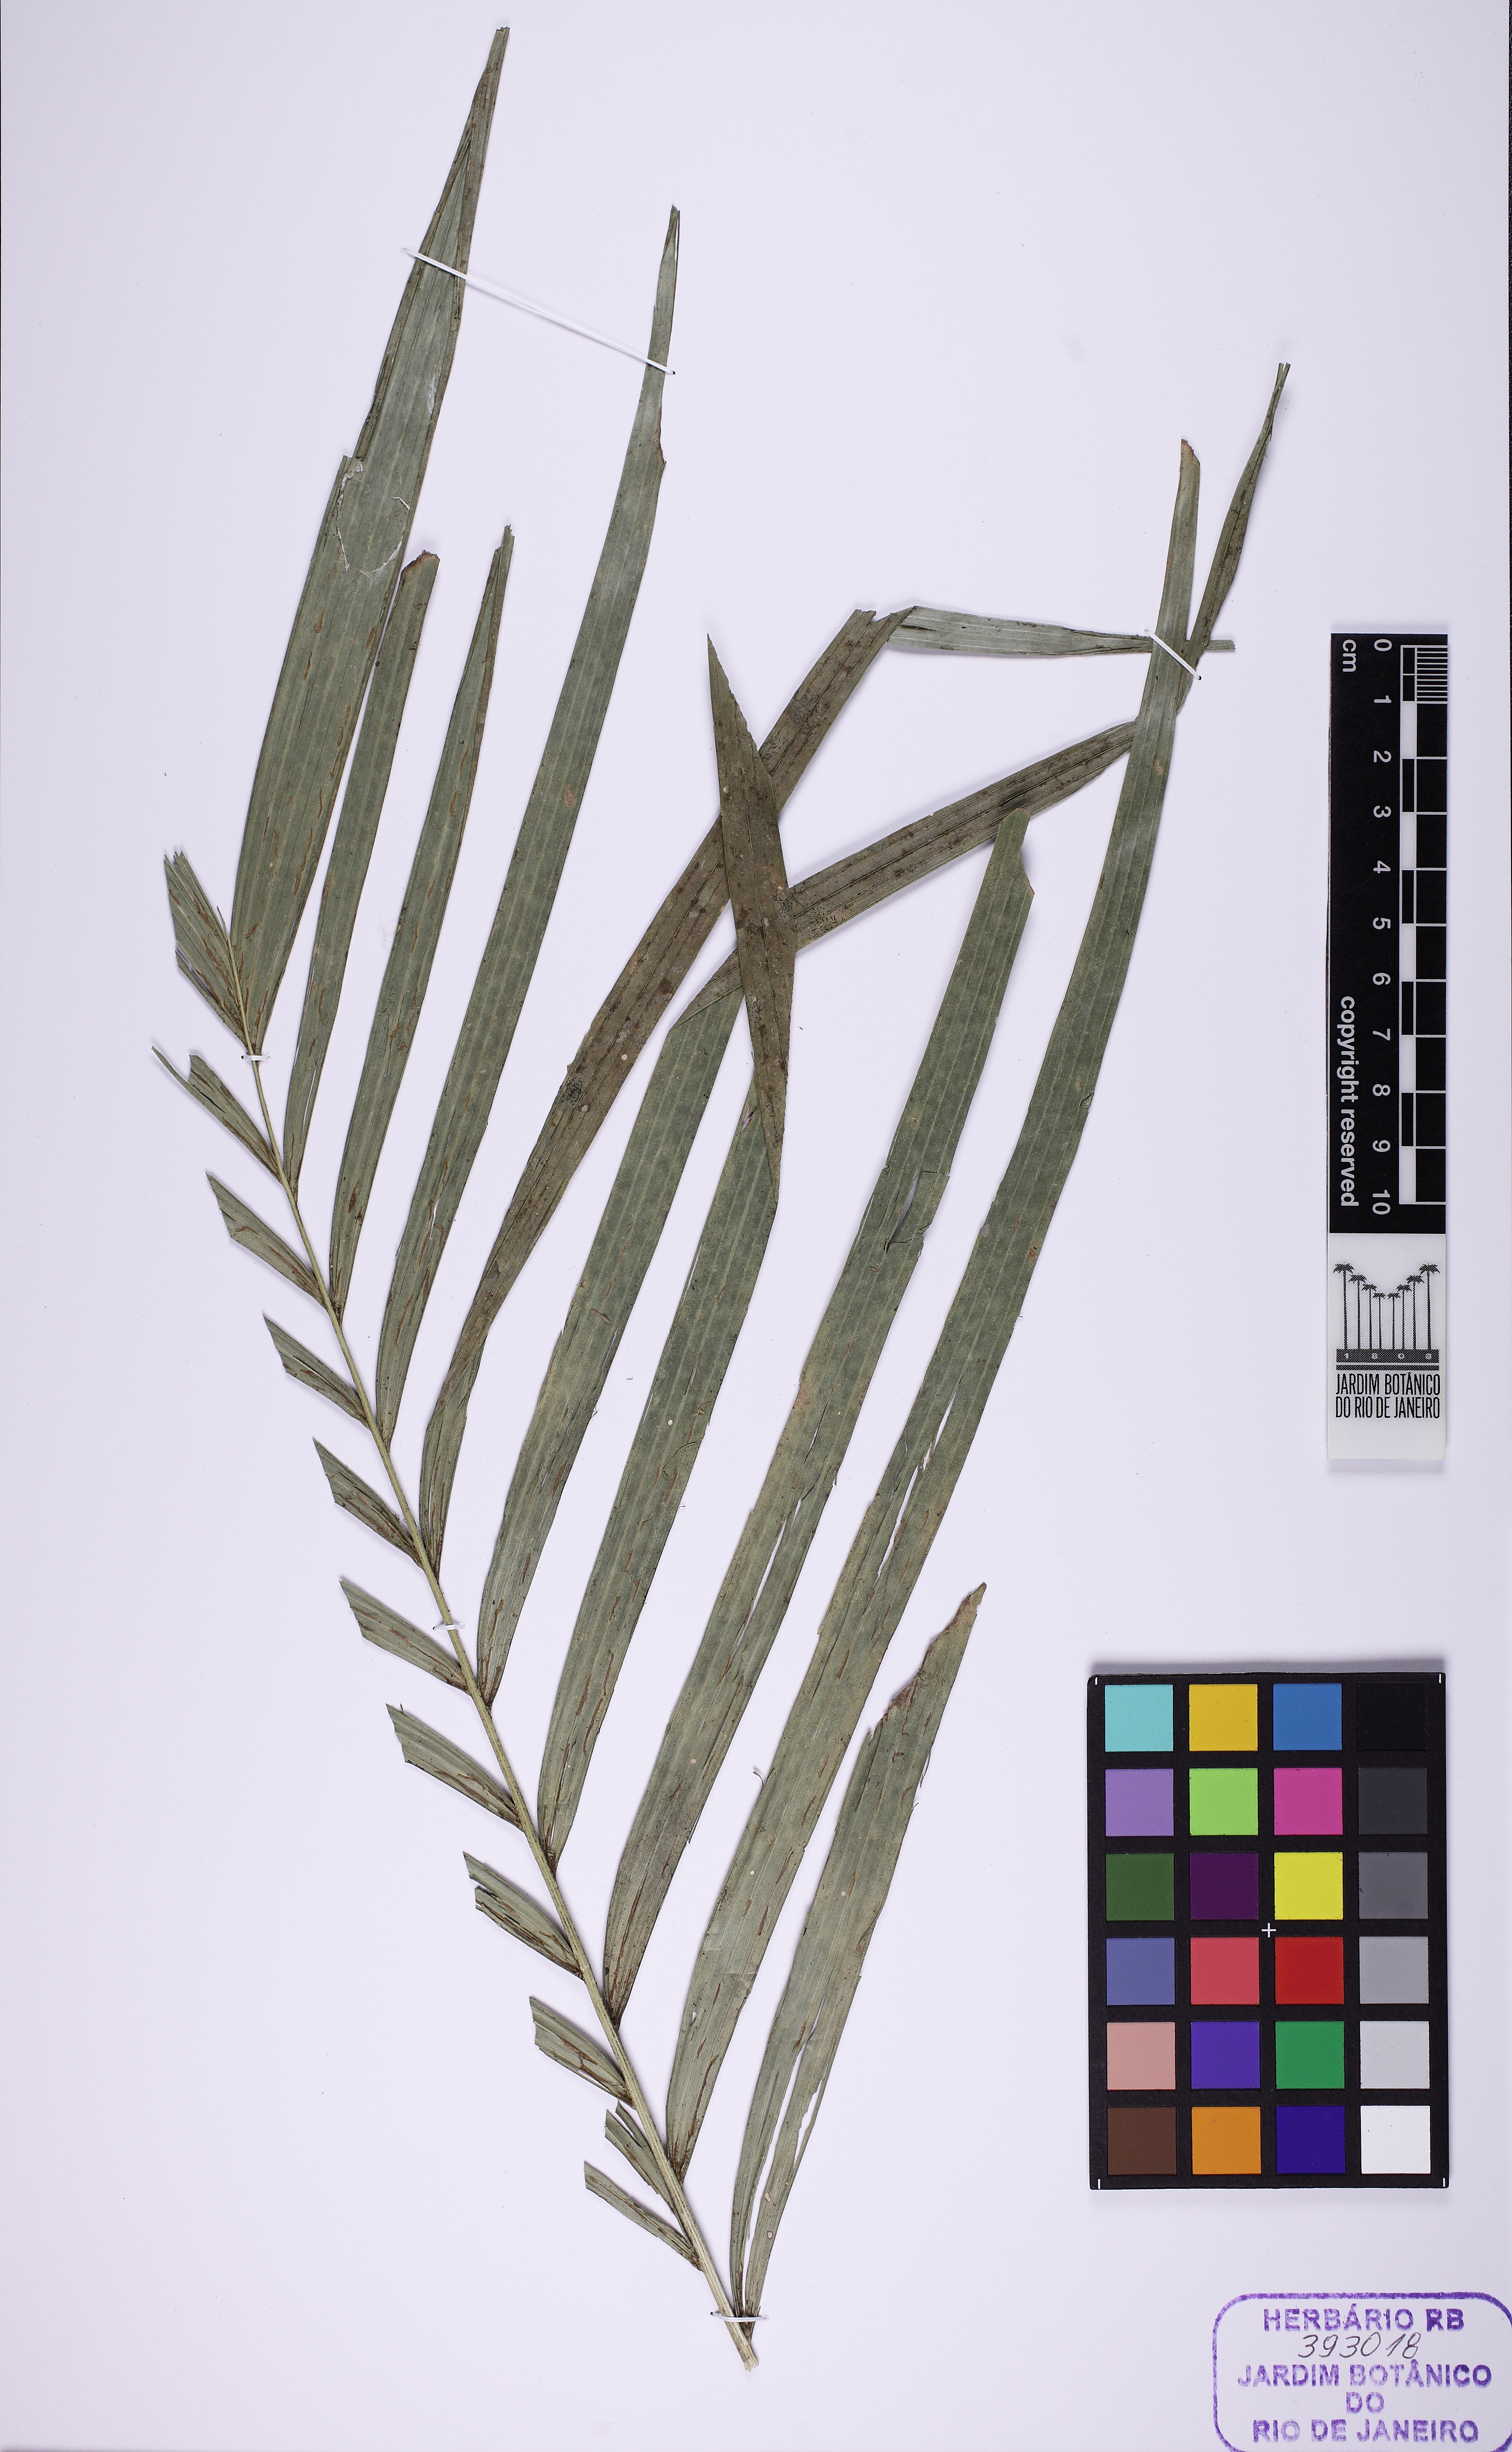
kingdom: Plantae
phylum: Tracheophyta
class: Liliopsida
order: Arecales
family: Arecaceae
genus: Geonoma
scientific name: Geonoma schottiana
